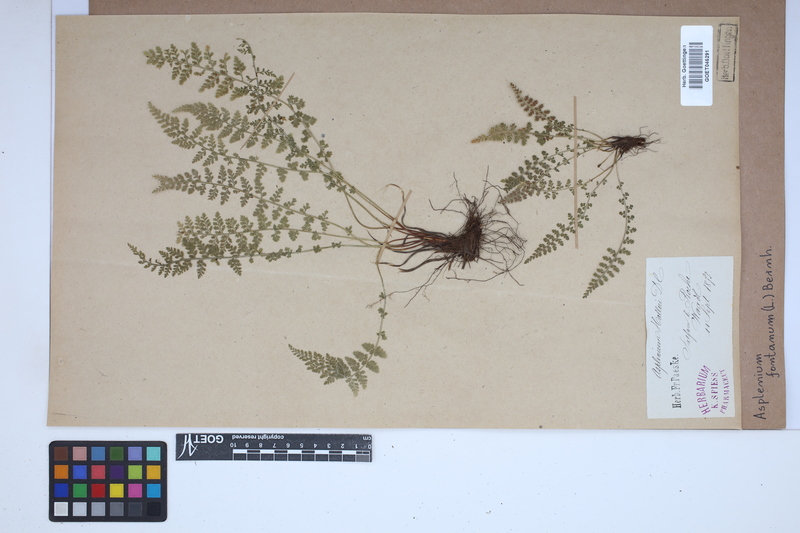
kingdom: Plantae
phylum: Tracheophyta
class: Polypodiopsida
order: Polypodiales
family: Aspleniaceae
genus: Asplenium
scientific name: Asplenium fontanum
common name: Fountain spleenwort
